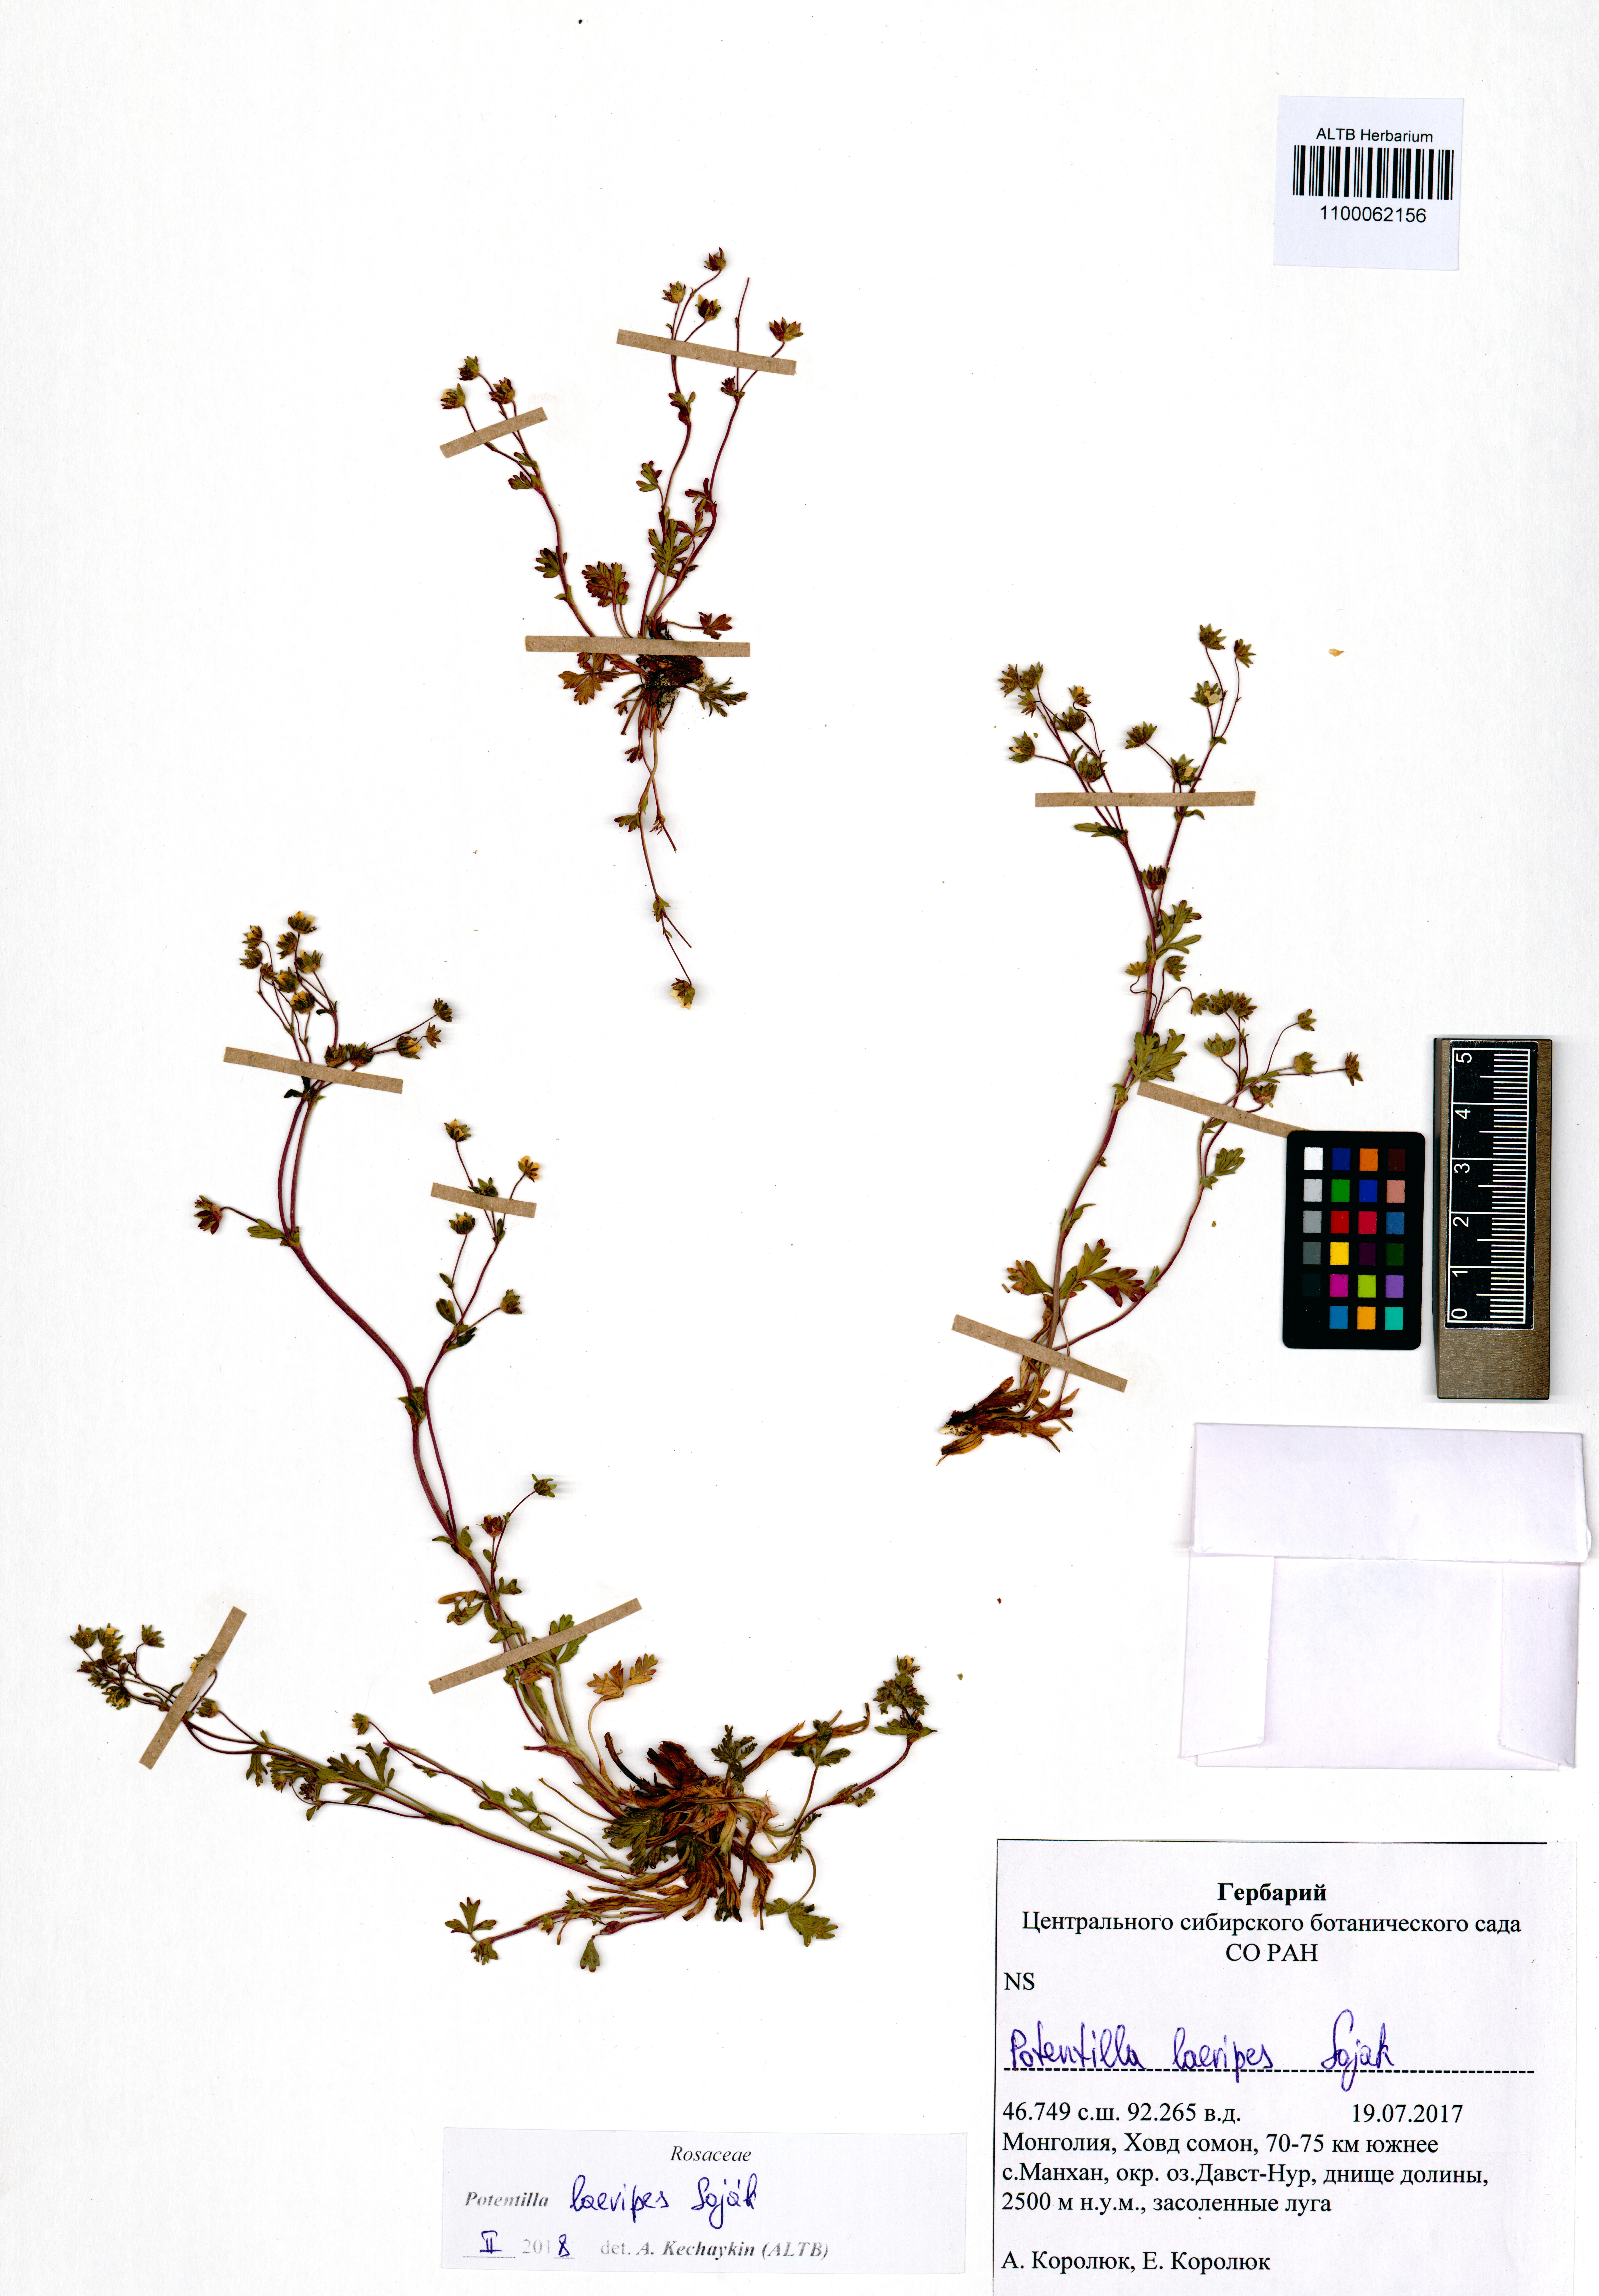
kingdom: Plantae
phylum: Tracheophyta
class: Magnoliopsida
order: Rosales
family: Rosaceae
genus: Potentilla
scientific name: Potentilla laevipes
